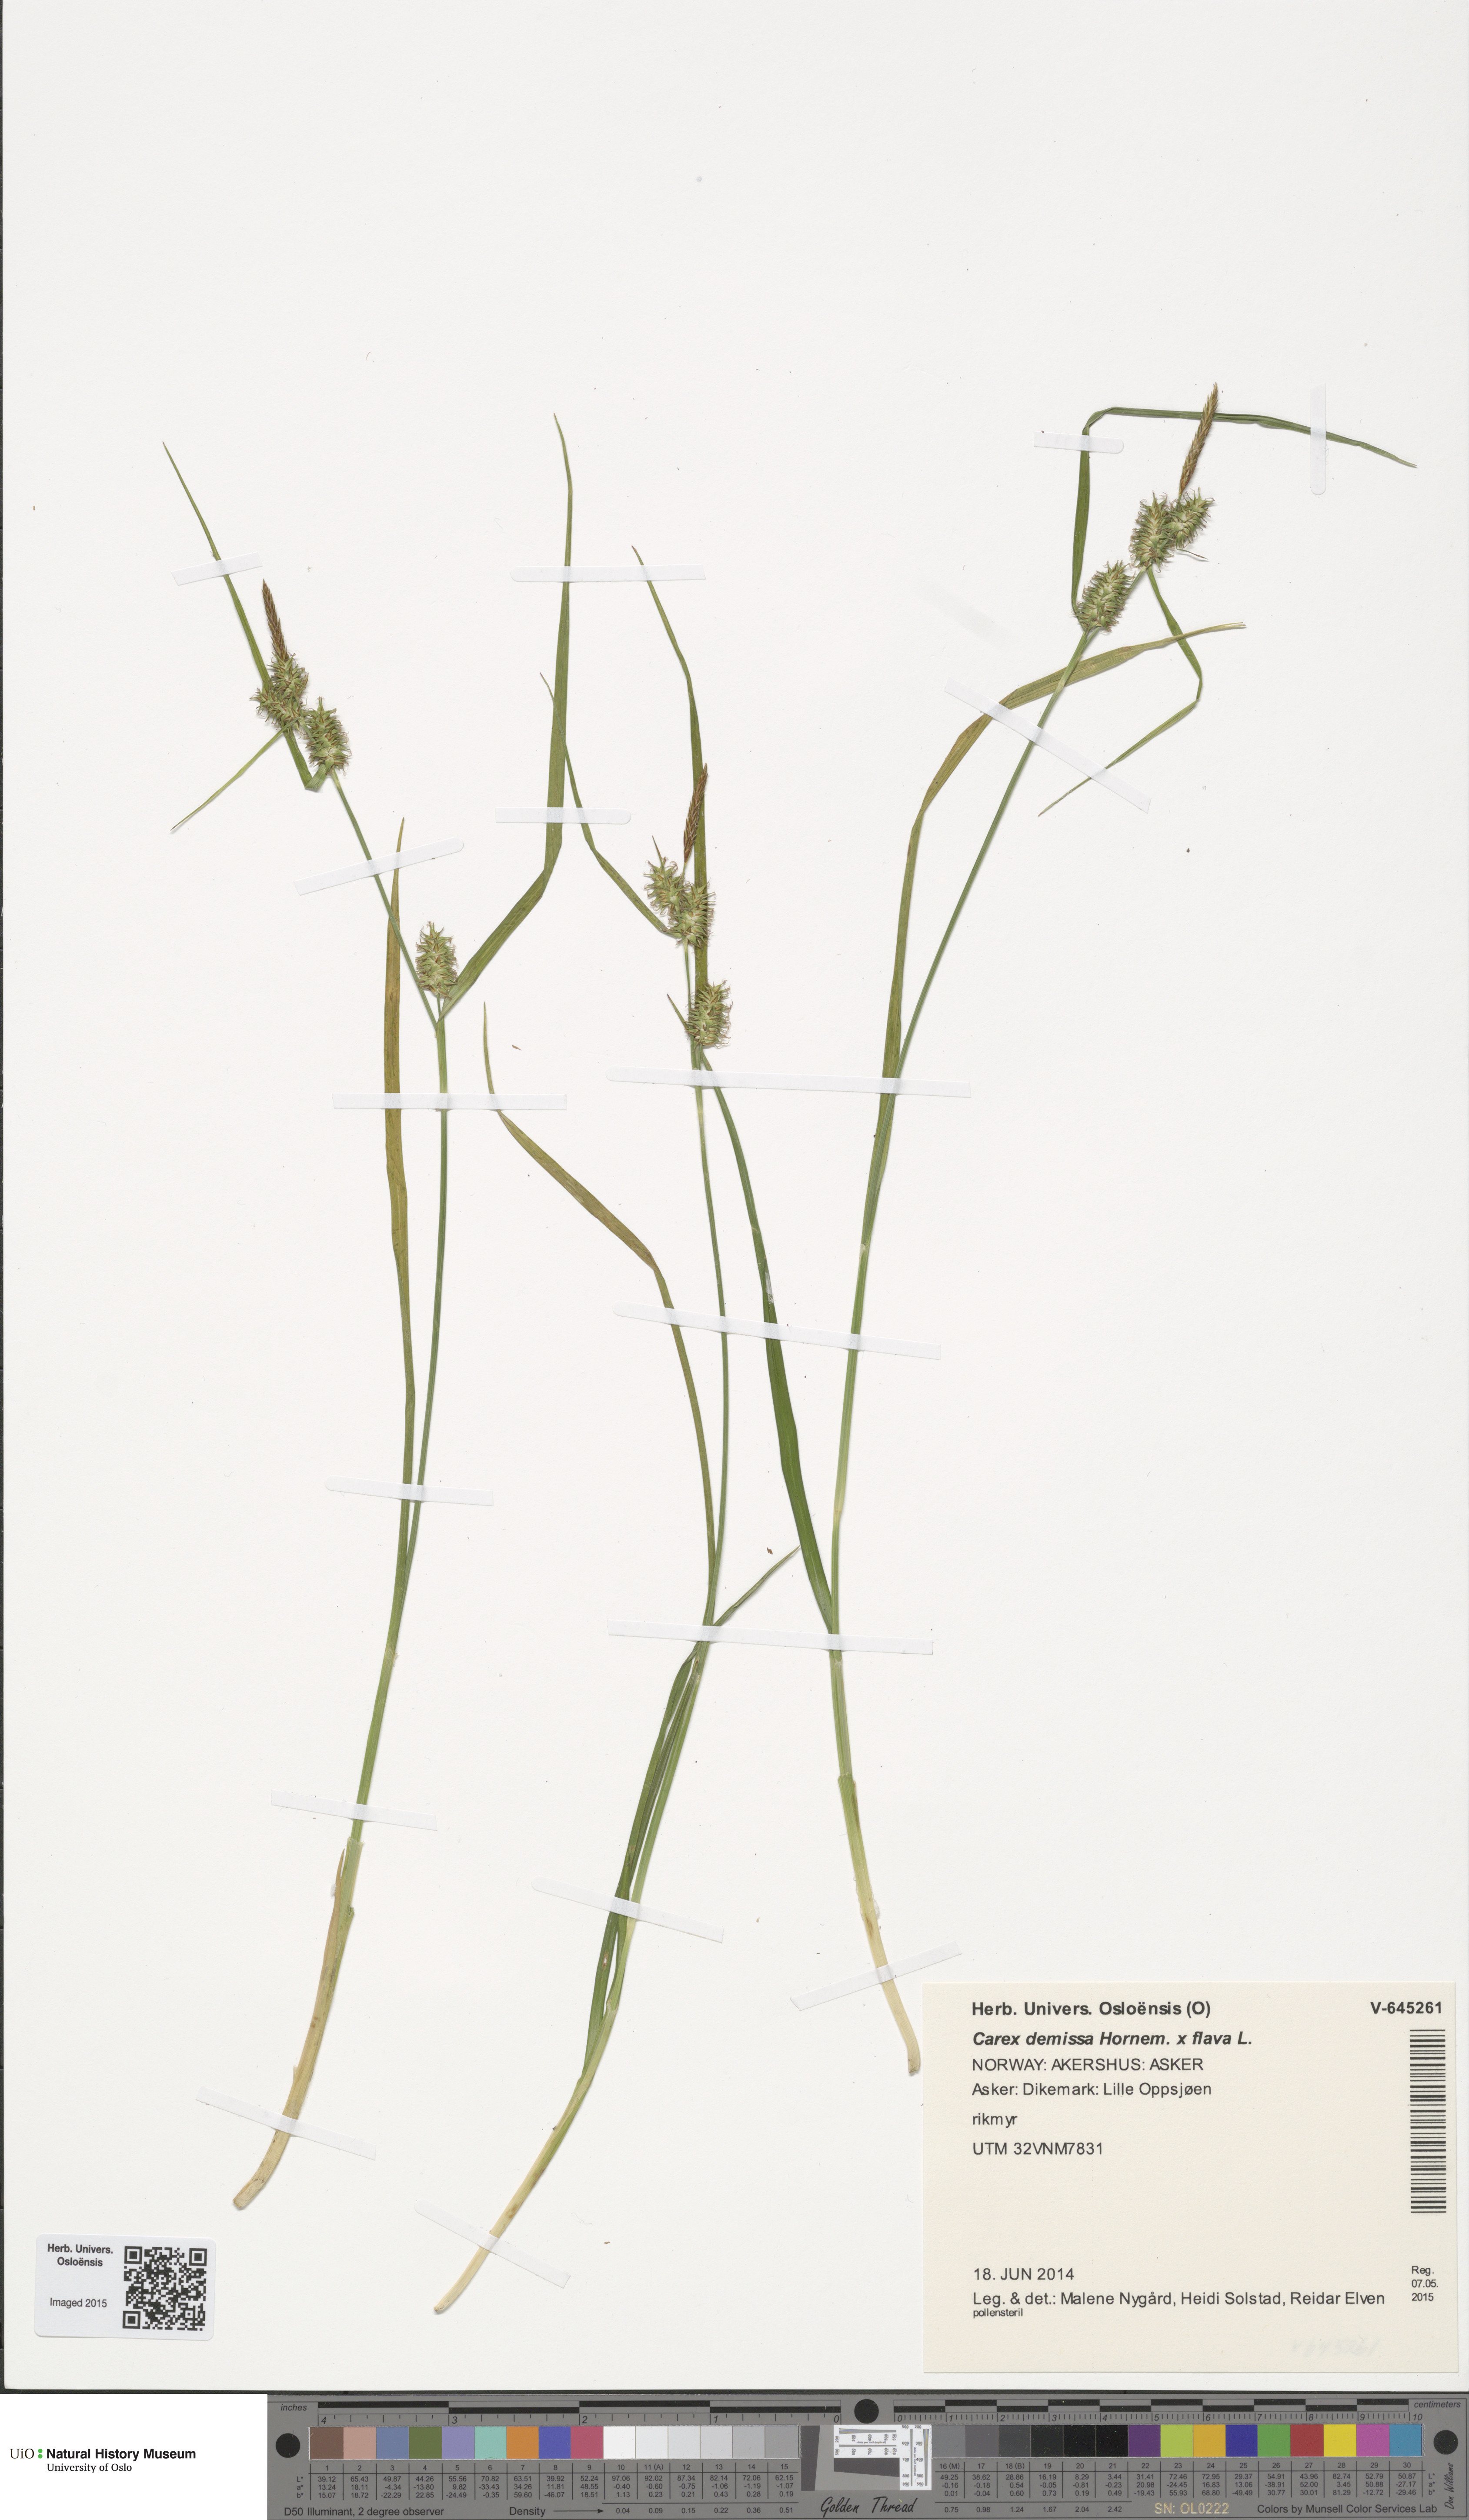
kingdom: Plantae
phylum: Tracheophyta
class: Liliopsida
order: Poales
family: Cyperaceae
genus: Carex
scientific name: Carex
